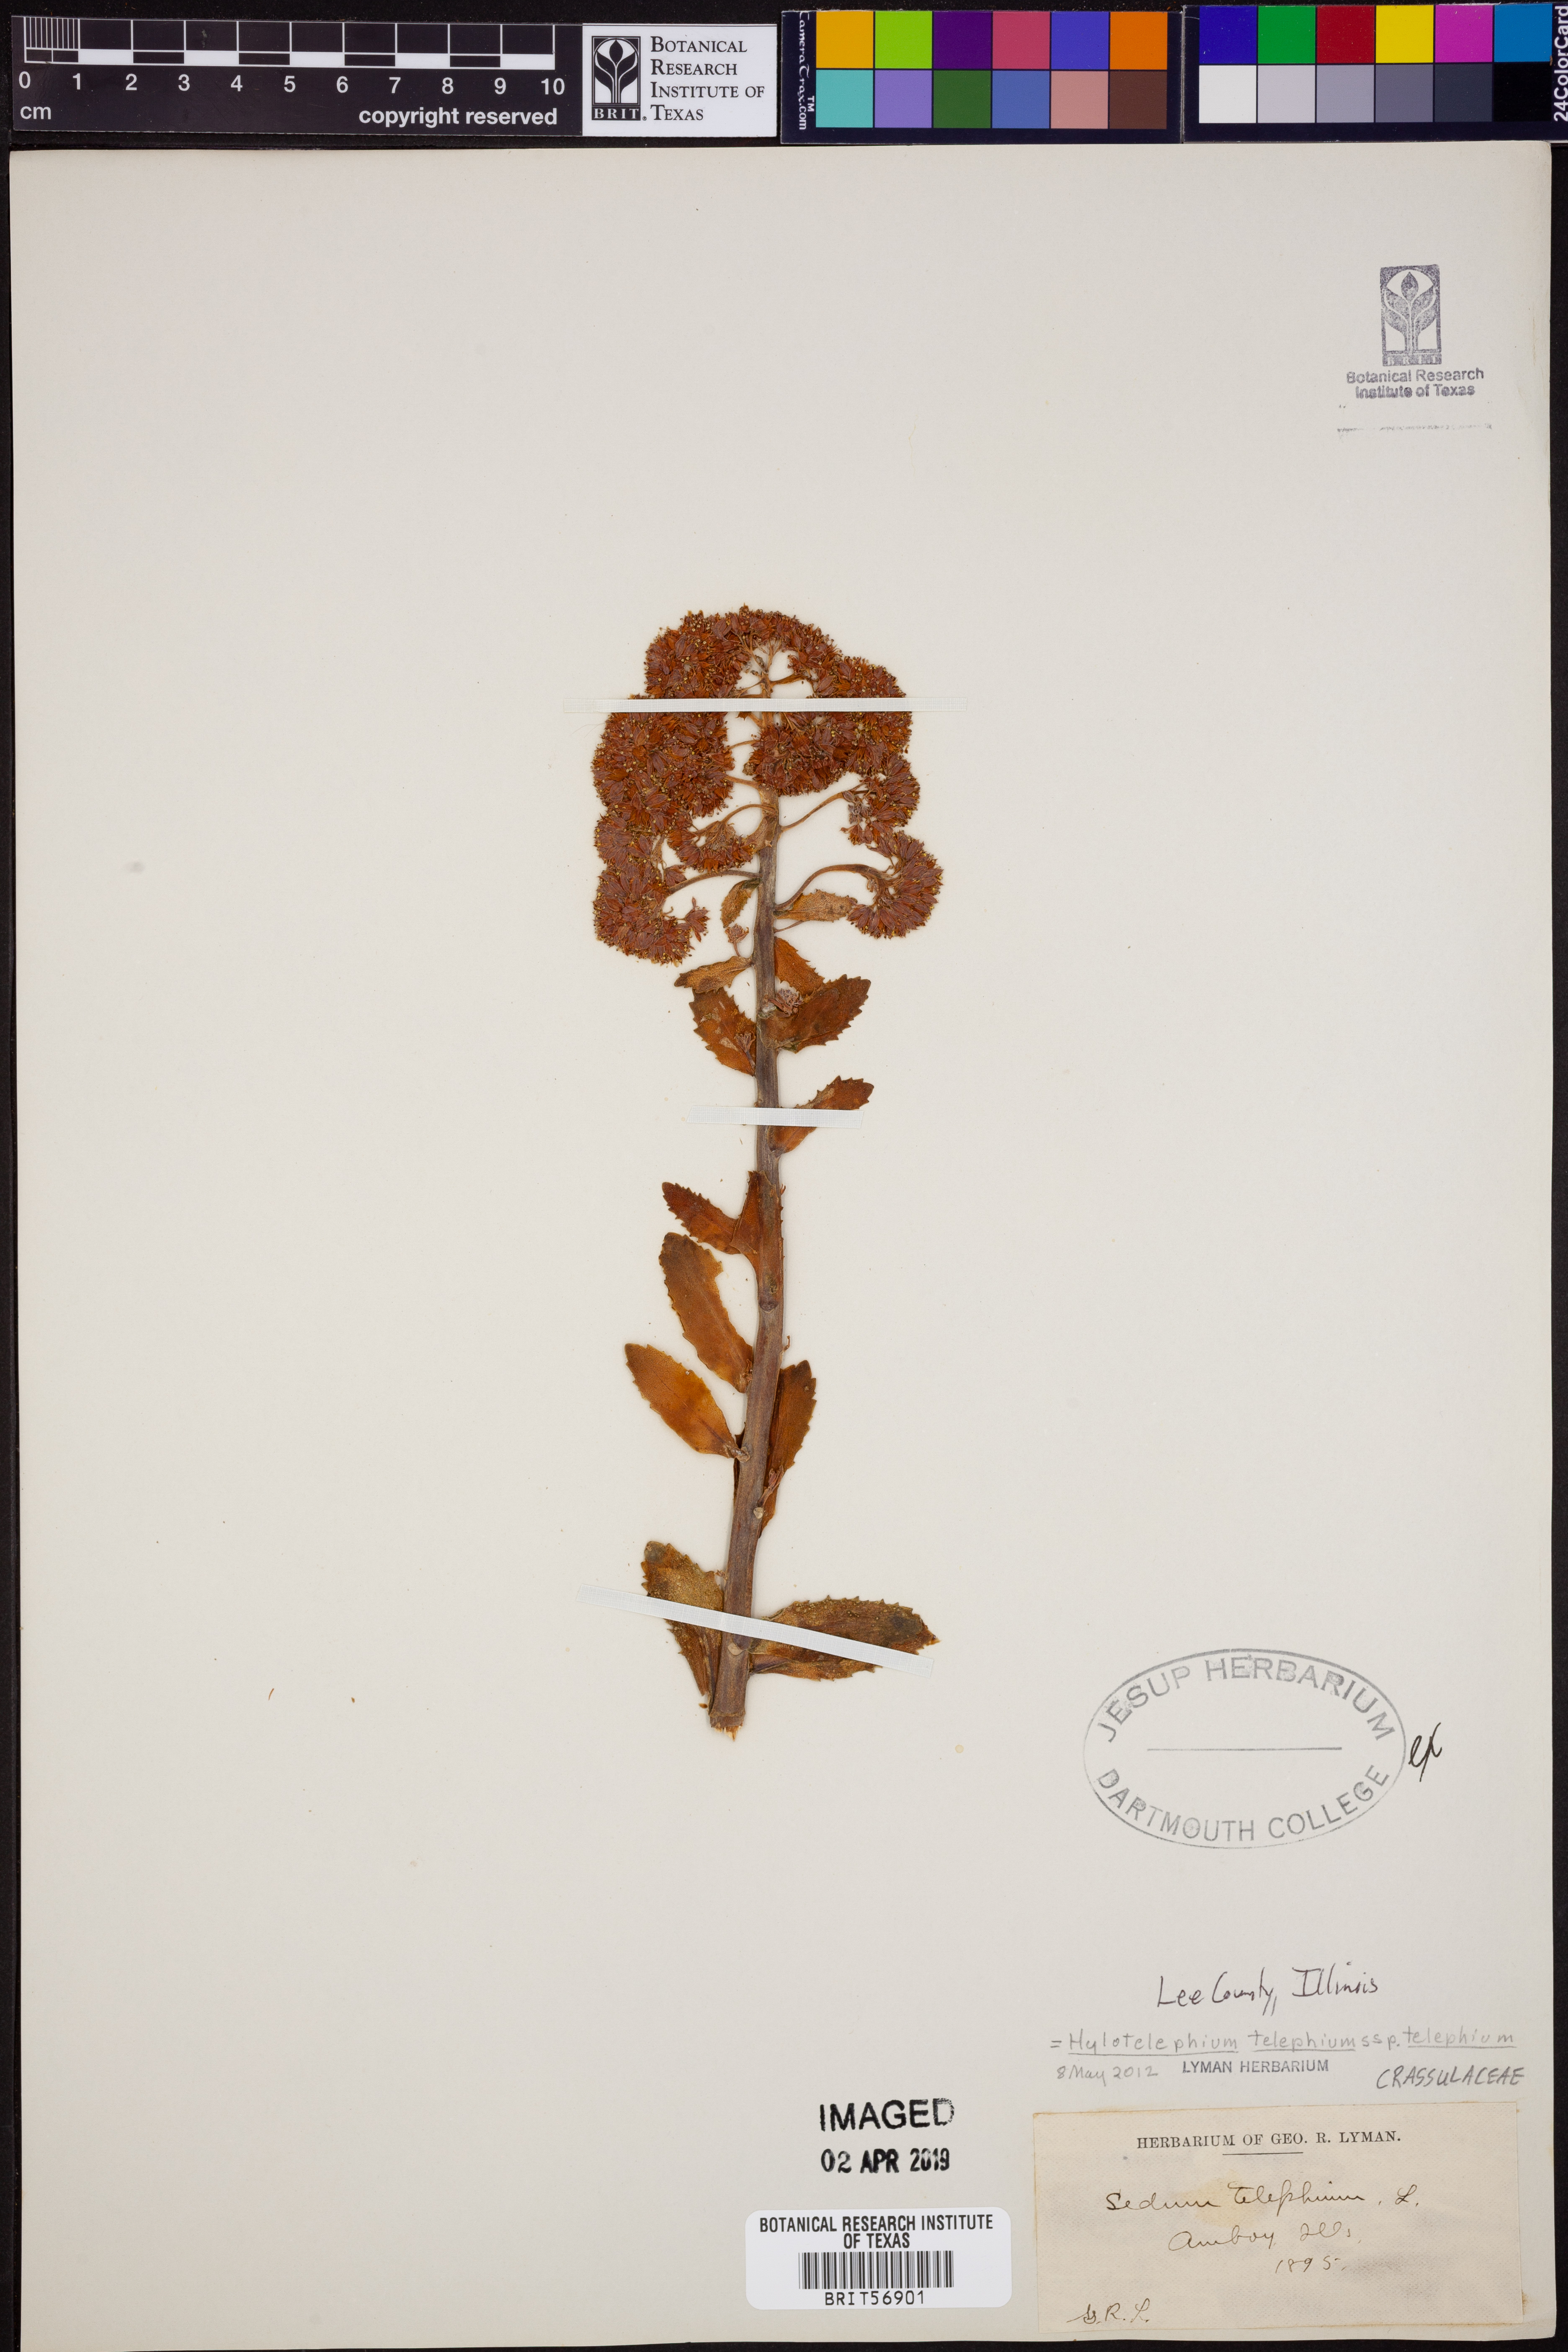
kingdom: Plantae
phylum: Tracheophyta
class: Magnoliopsida
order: Saxifragales
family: Crassulaceae
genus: Hylotelephium
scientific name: Hylotelephium telephium
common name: Live-forever
